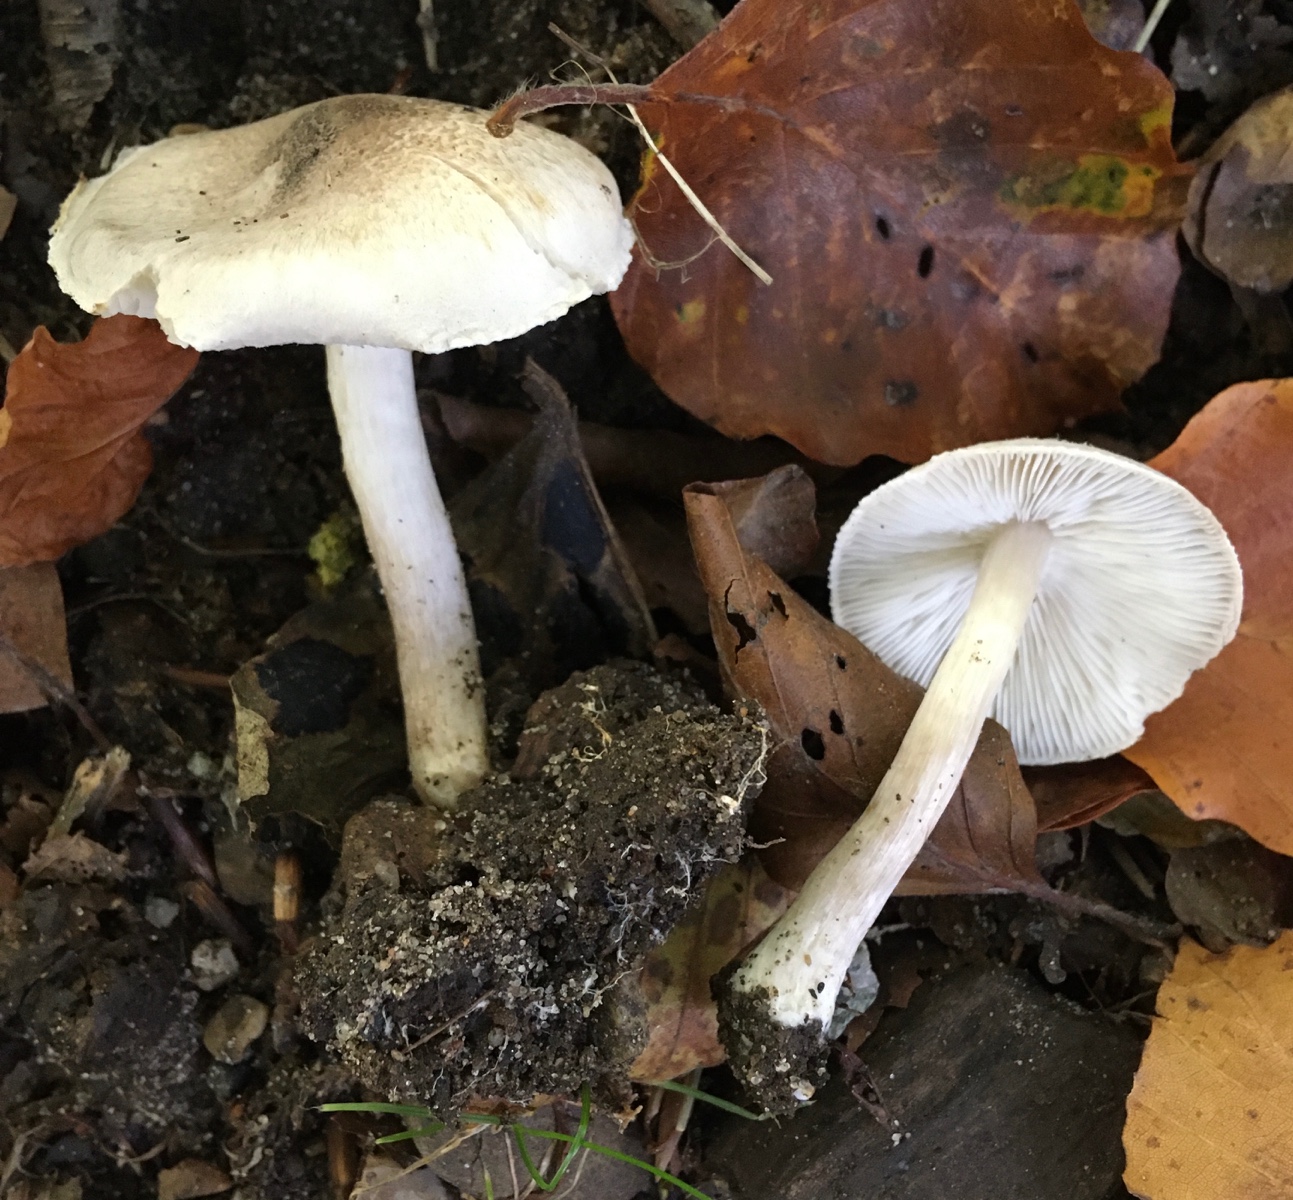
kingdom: Fungi
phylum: Basidiomycota
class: Agaricomycetes
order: Agaricales
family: Tricholomataceae
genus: Tricholoma
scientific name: Tricholoma lascivum
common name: stinkende ridderhat
